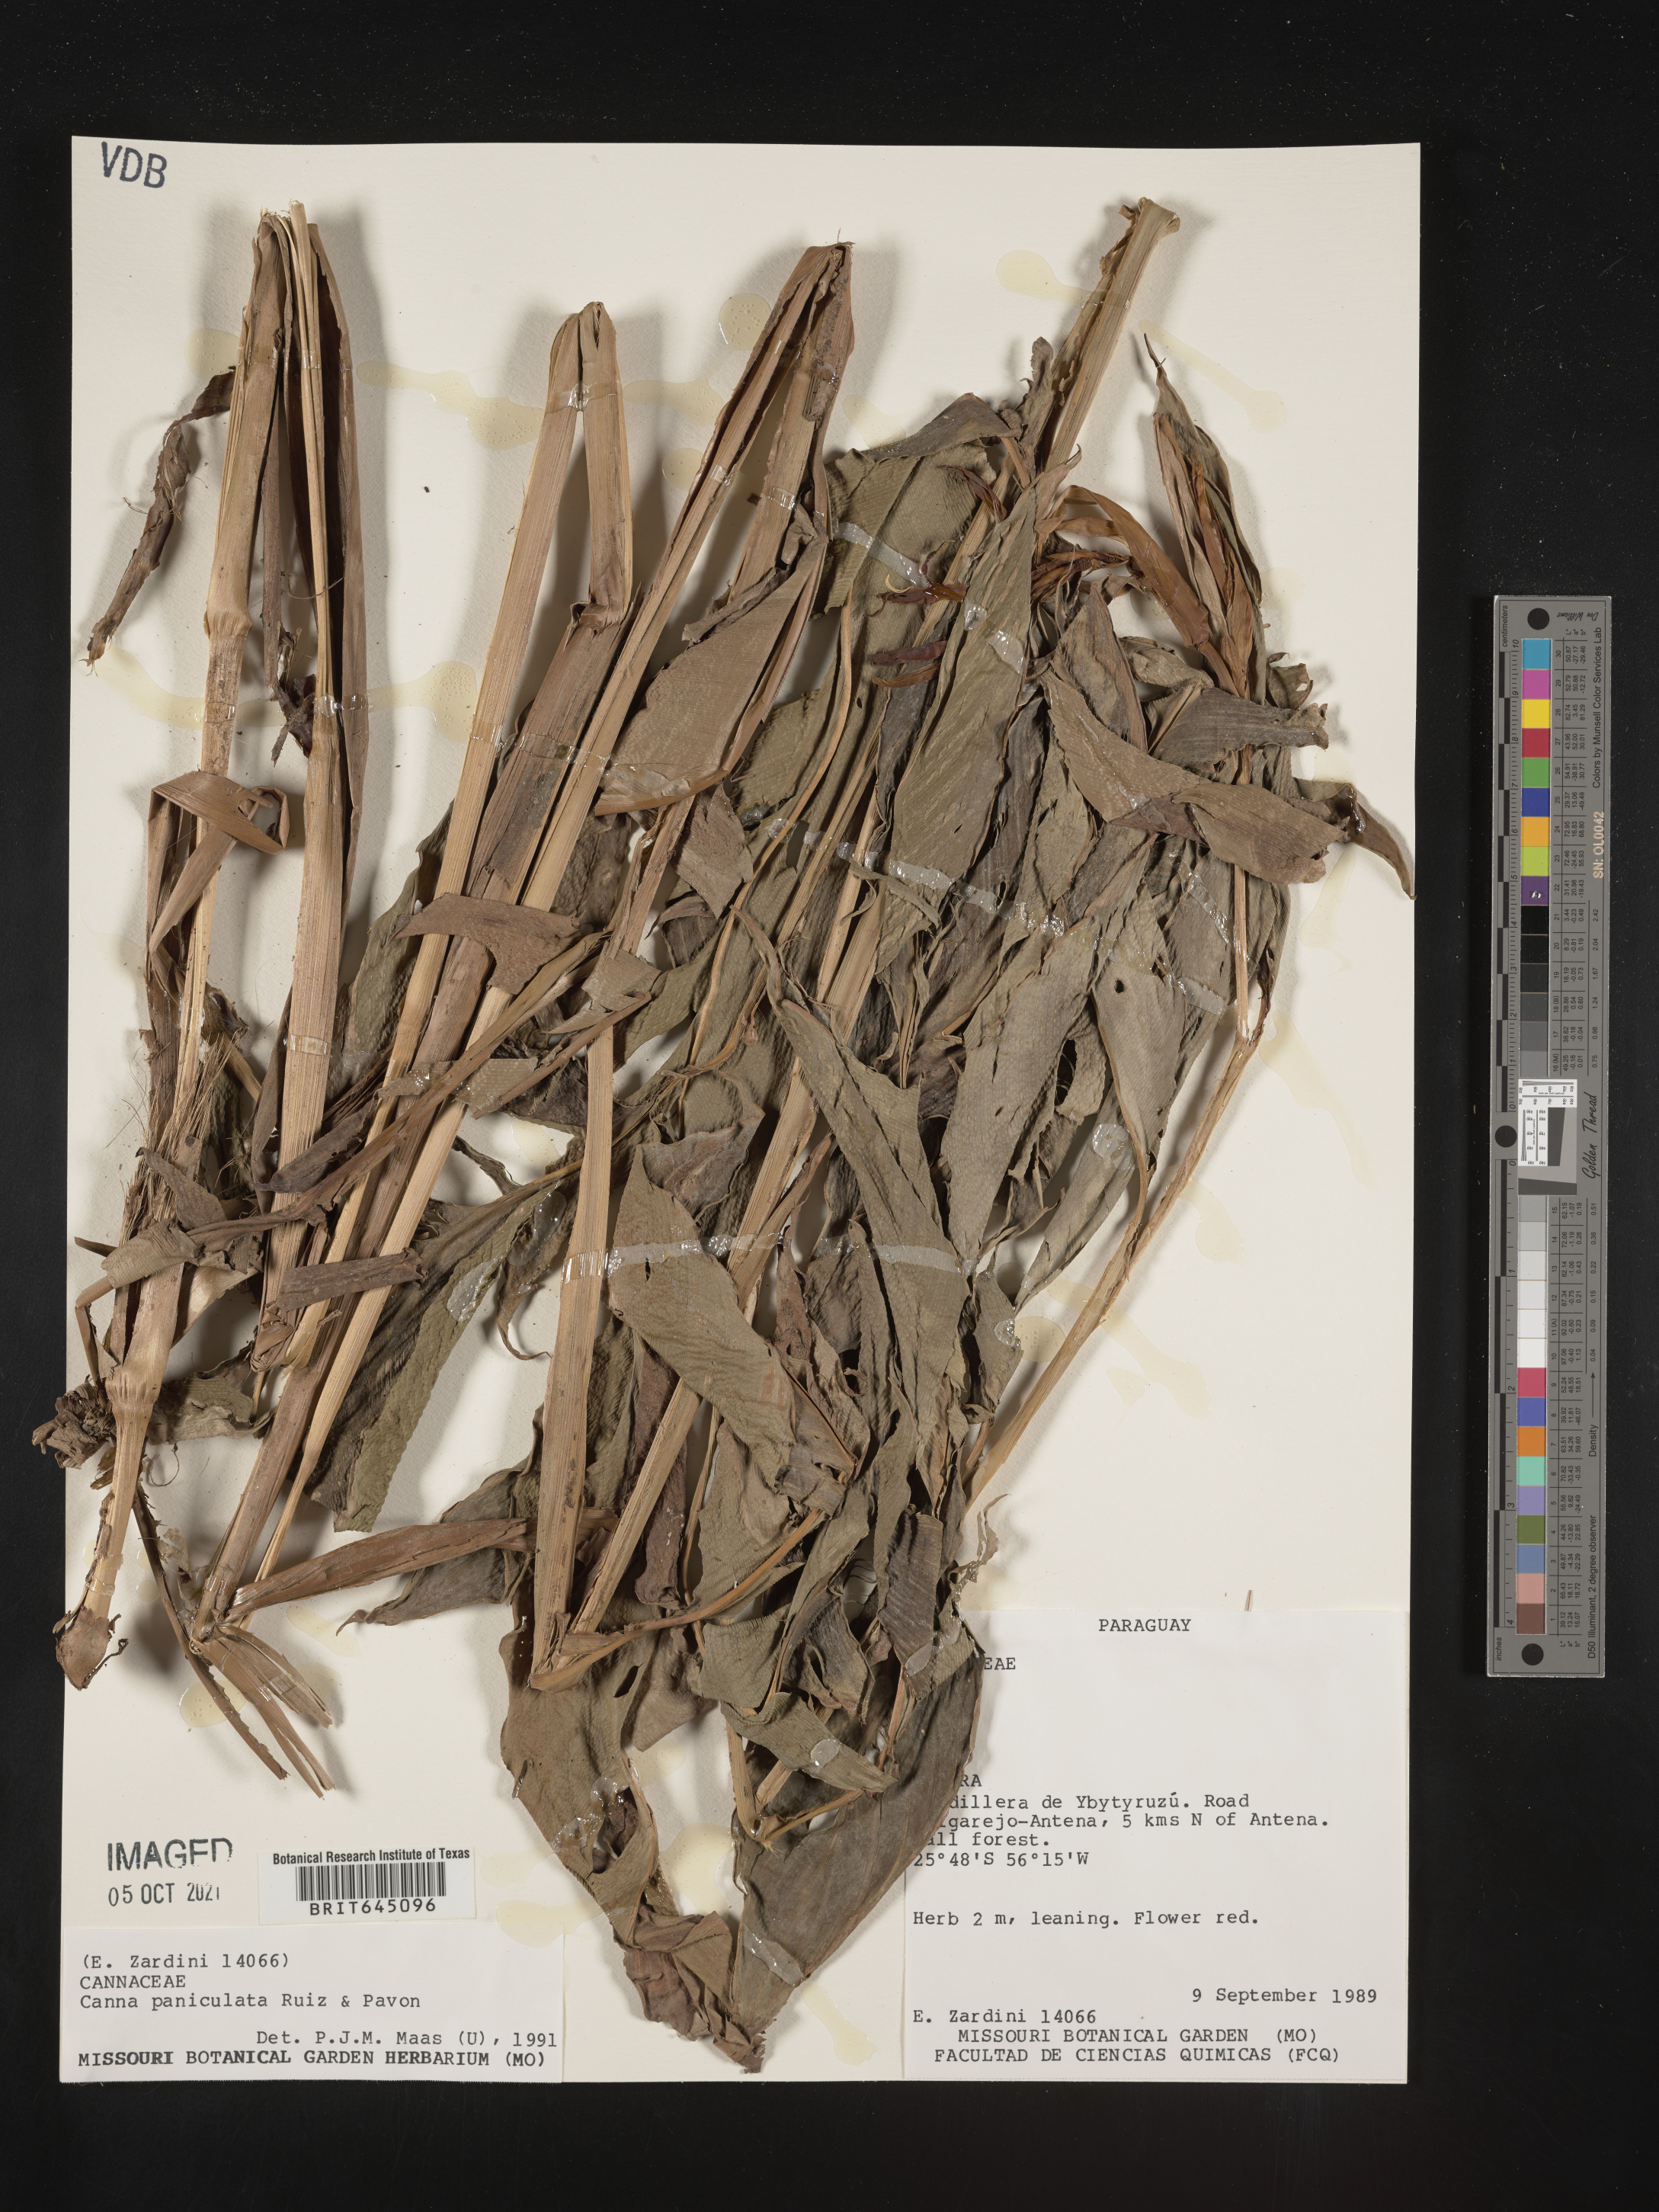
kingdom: Plantae
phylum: Tracheophyta
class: Liliopsida
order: Zingiberales
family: Cannaceae
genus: Canna
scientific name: Canna paniculata
